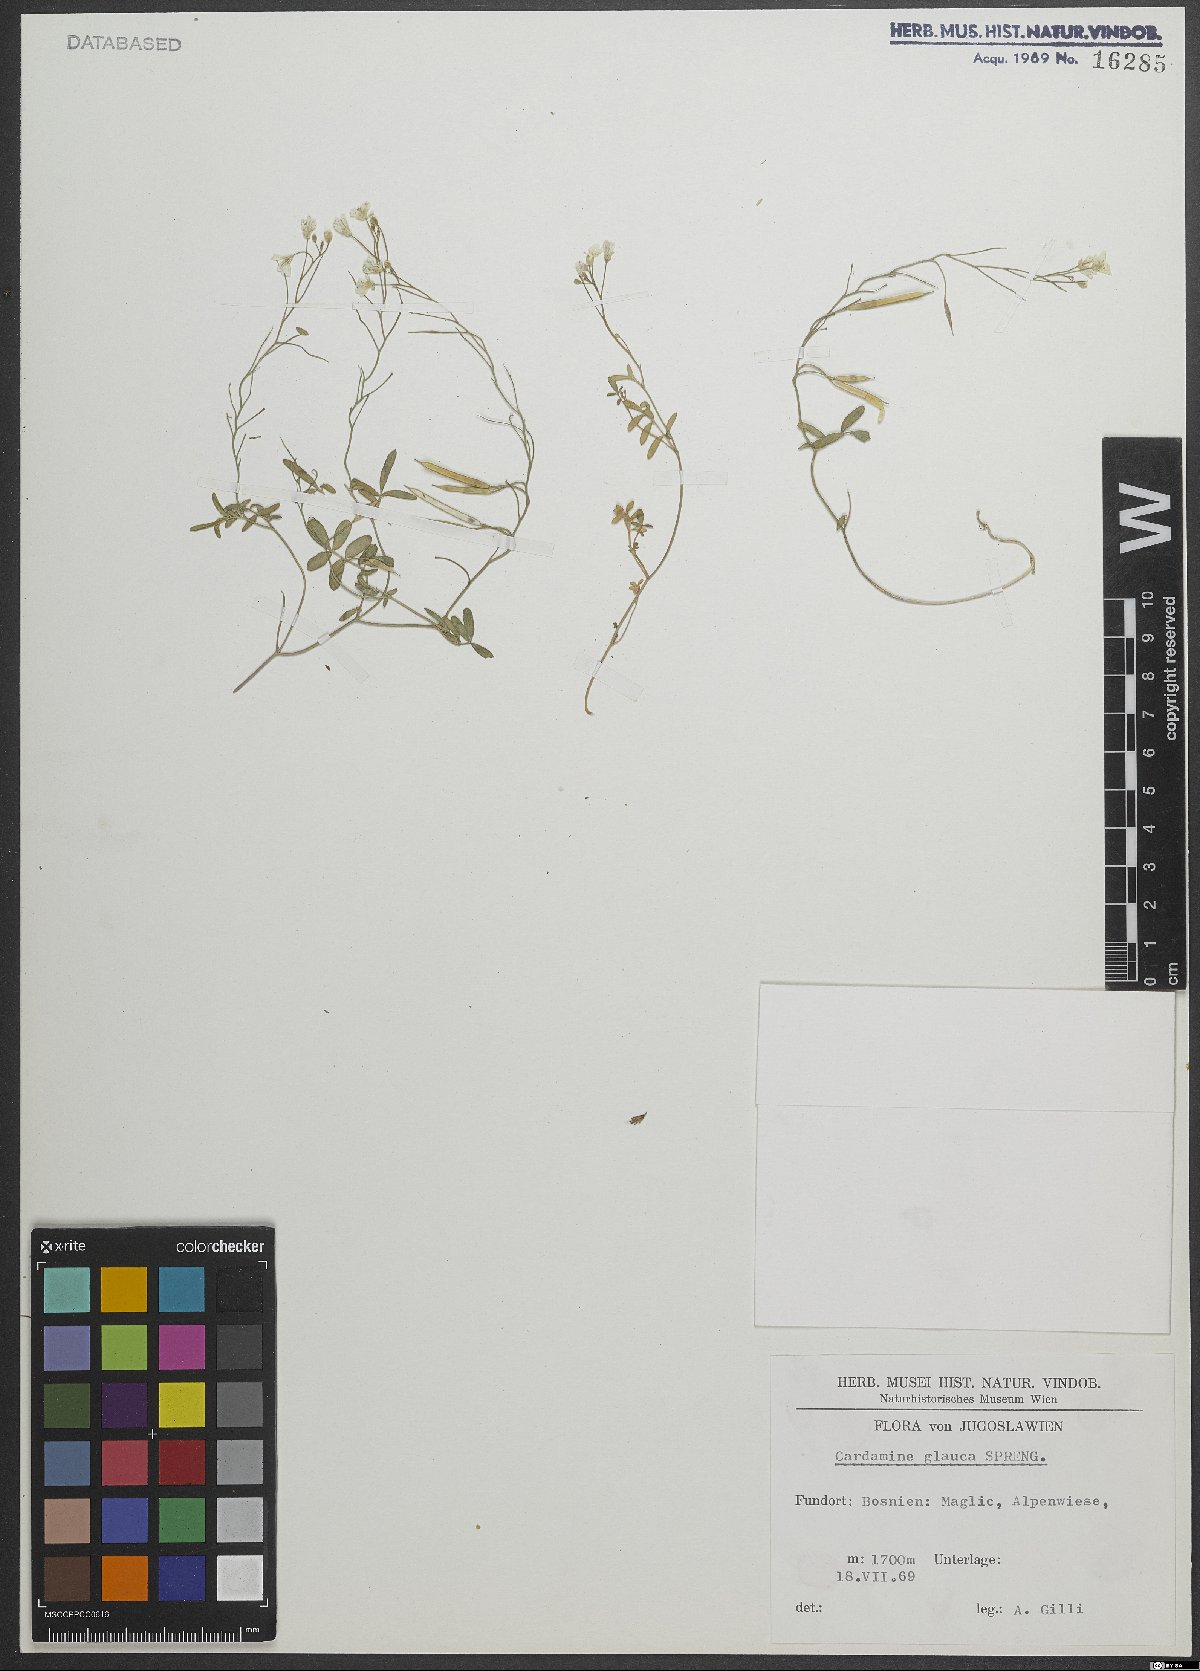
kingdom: Plantae
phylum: Tracheophyta
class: Magnoliopsida
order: Brassicales
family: Brassicaceae
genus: Cardamine
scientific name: Cardamine glauca
